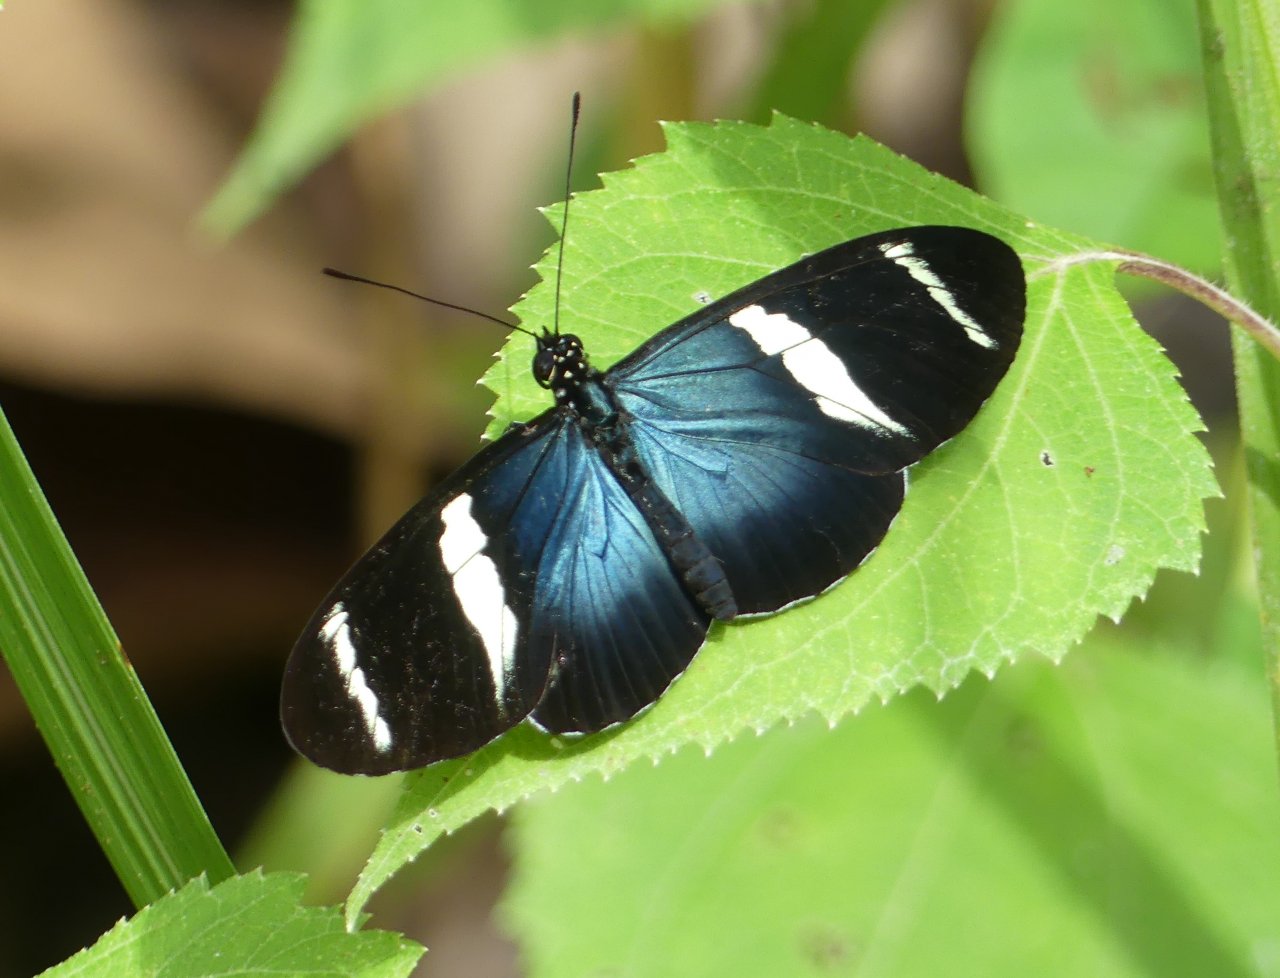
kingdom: Animalia
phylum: Arthropoda
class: Insecta
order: Lepidoptera
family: Nymphalidae
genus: Heliconius
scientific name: Heliconius doris
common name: Doris Longwing
